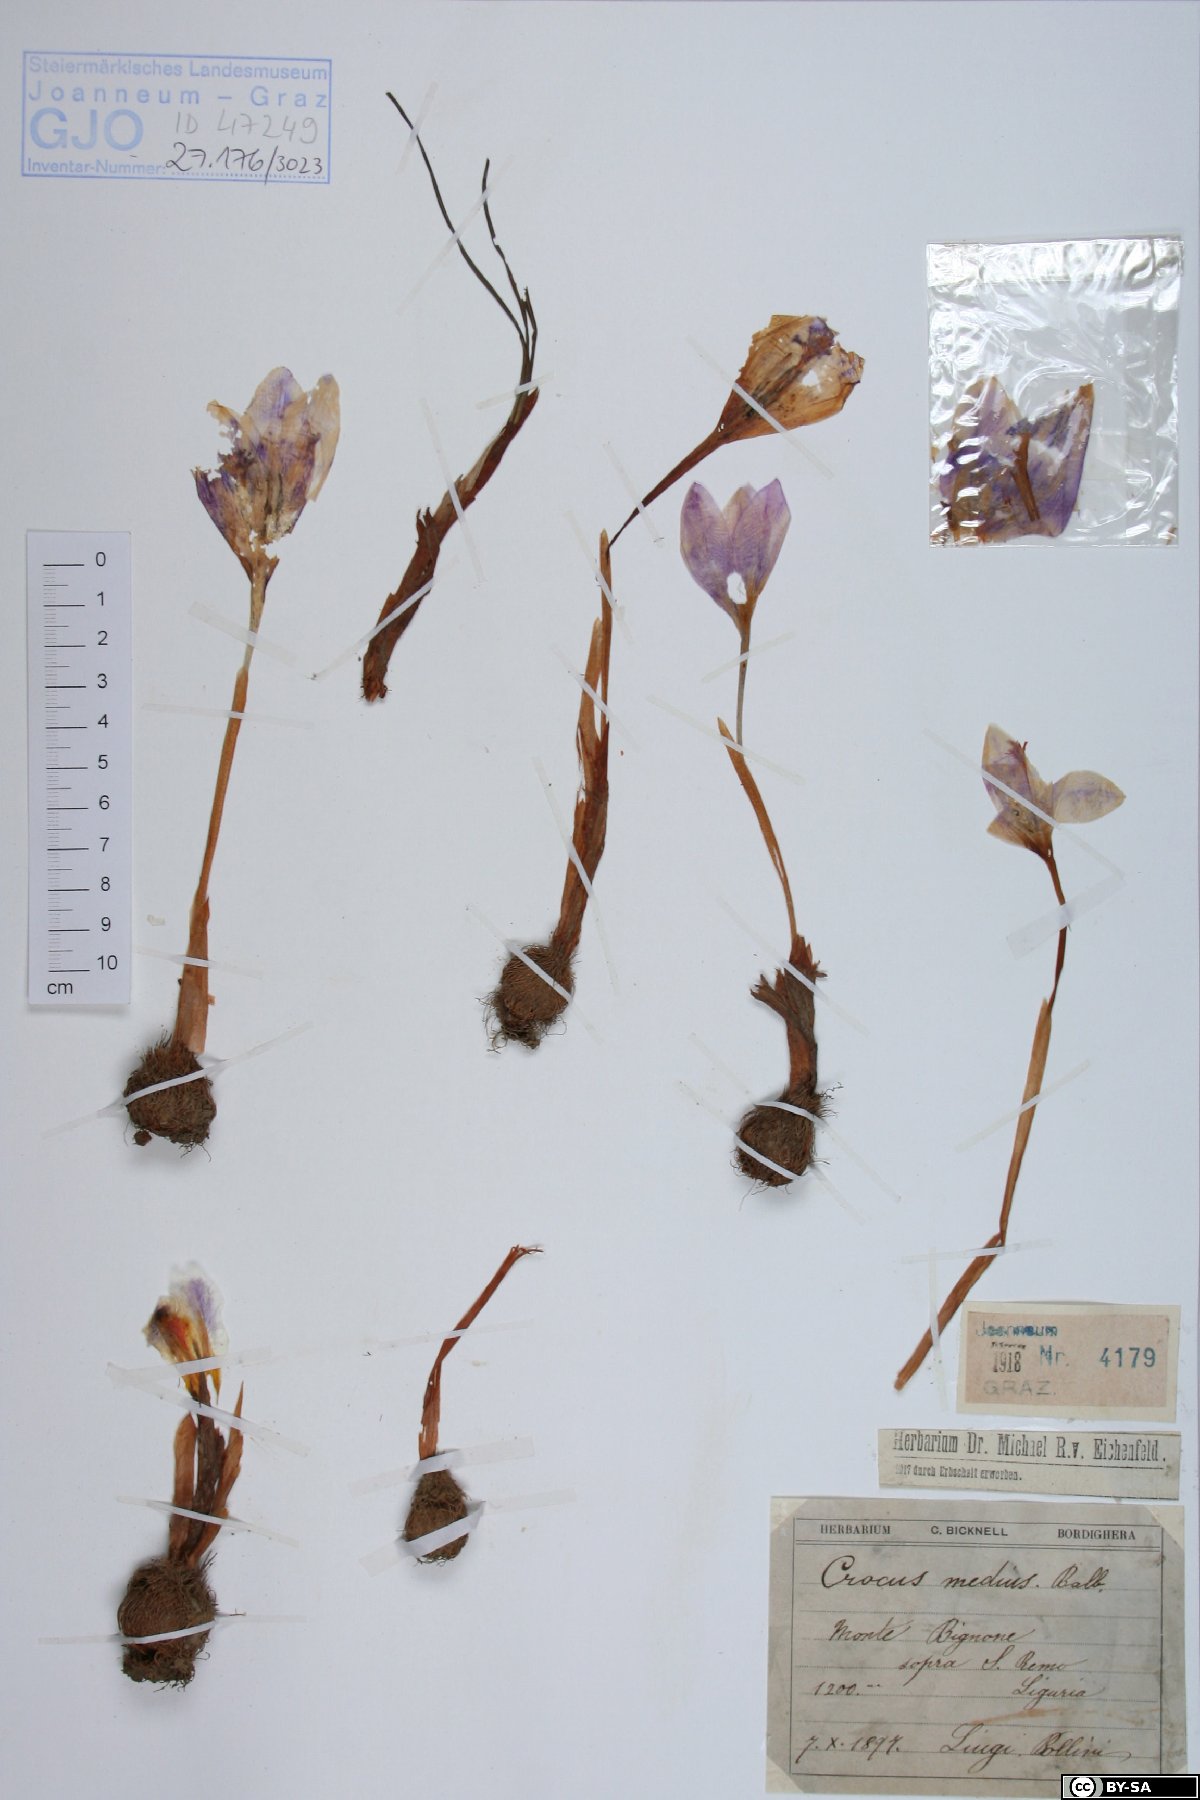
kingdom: Plantae
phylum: Tracheophyta
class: Liliopsida
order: Asparagales
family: Iridaceae
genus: Crocus
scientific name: Crocus nudiflorus
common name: Autumn crocus
